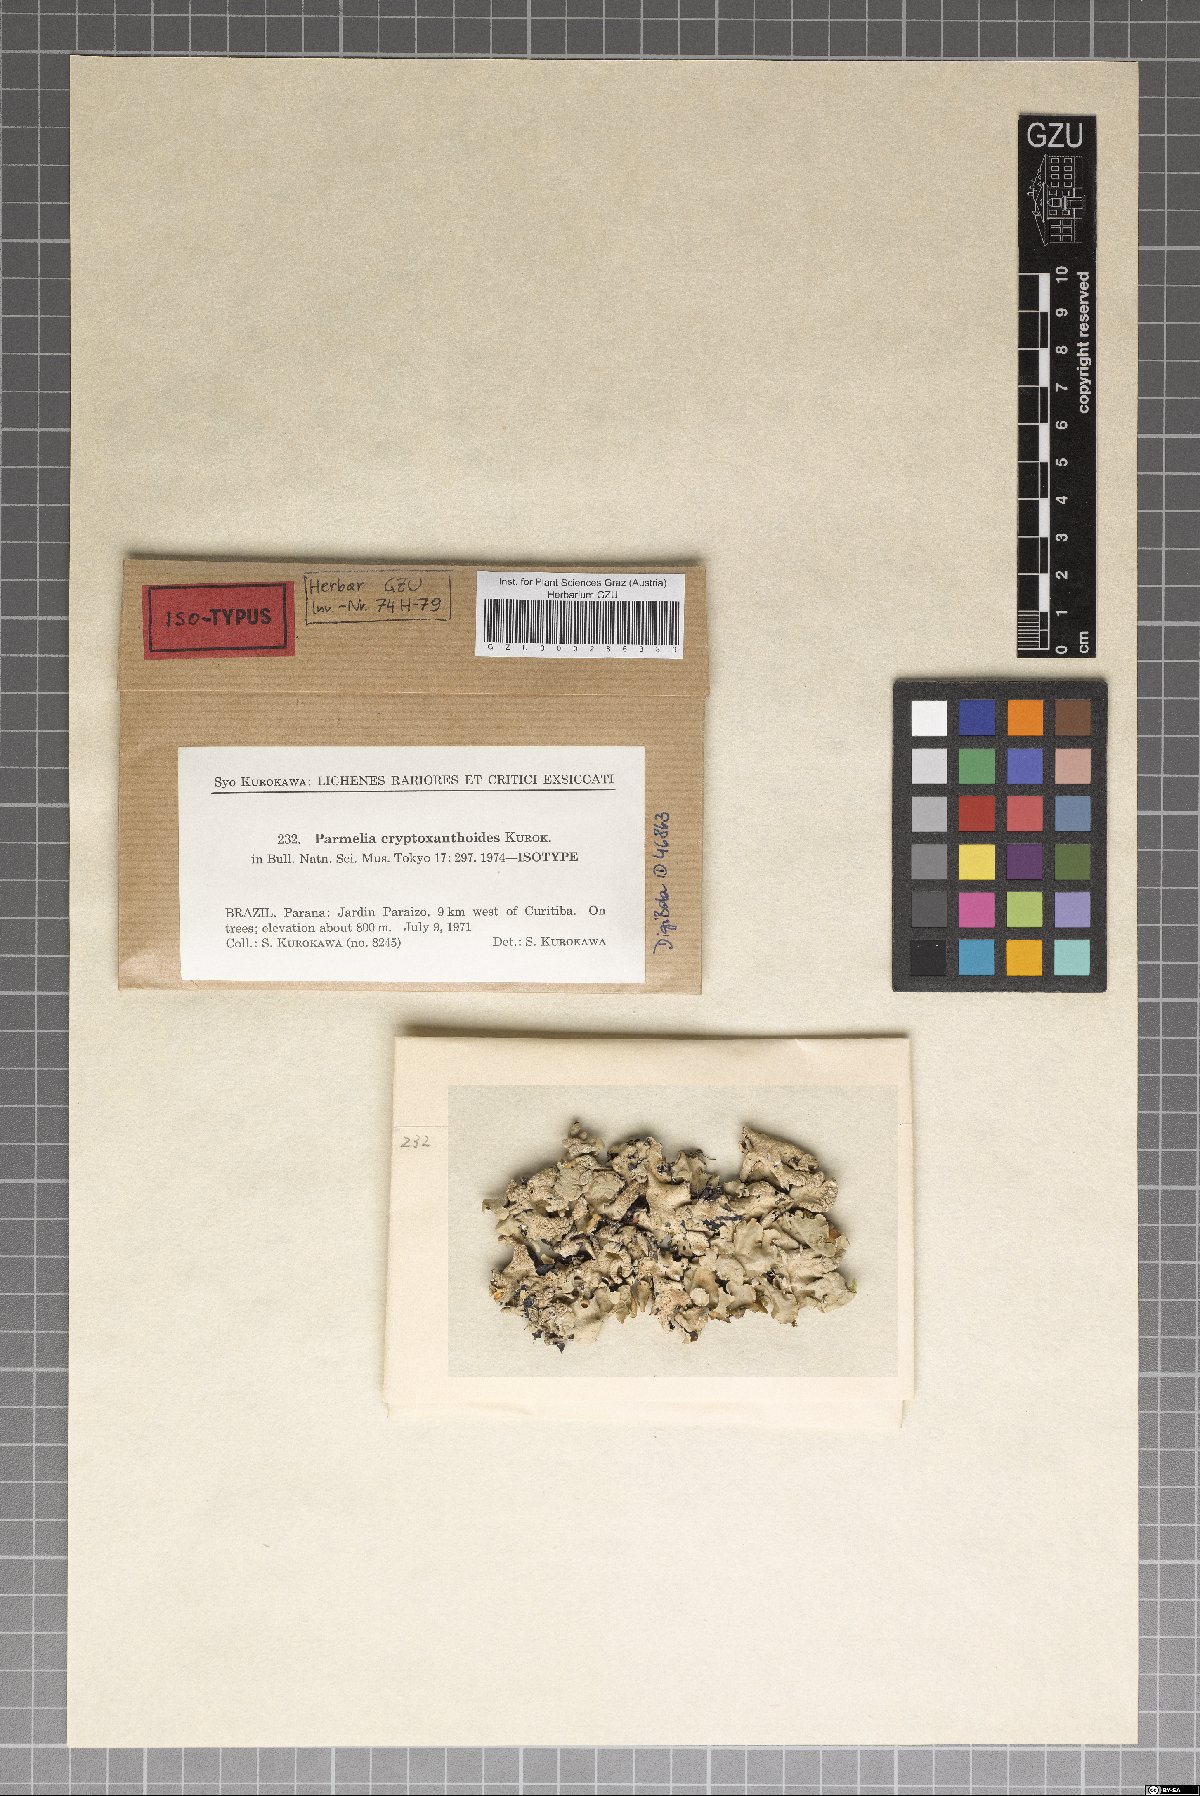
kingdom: Fungi
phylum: Ascomycota
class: Lecanoromycetes
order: Lecanorales
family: Parmeliaceae
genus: Parmelinella
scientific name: Parmelinella
